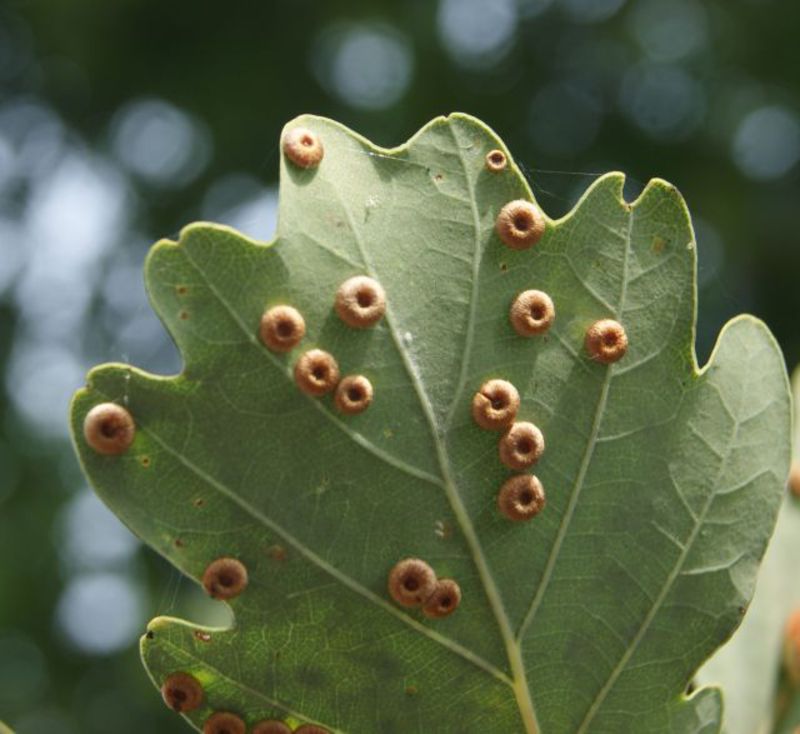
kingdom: Animalia
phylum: Arthropoda
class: Insecta
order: Hymenoptera
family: Cynipidae
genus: Neuroterus
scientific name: Neuroterus numismalis
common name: Silk-button spangle gall
